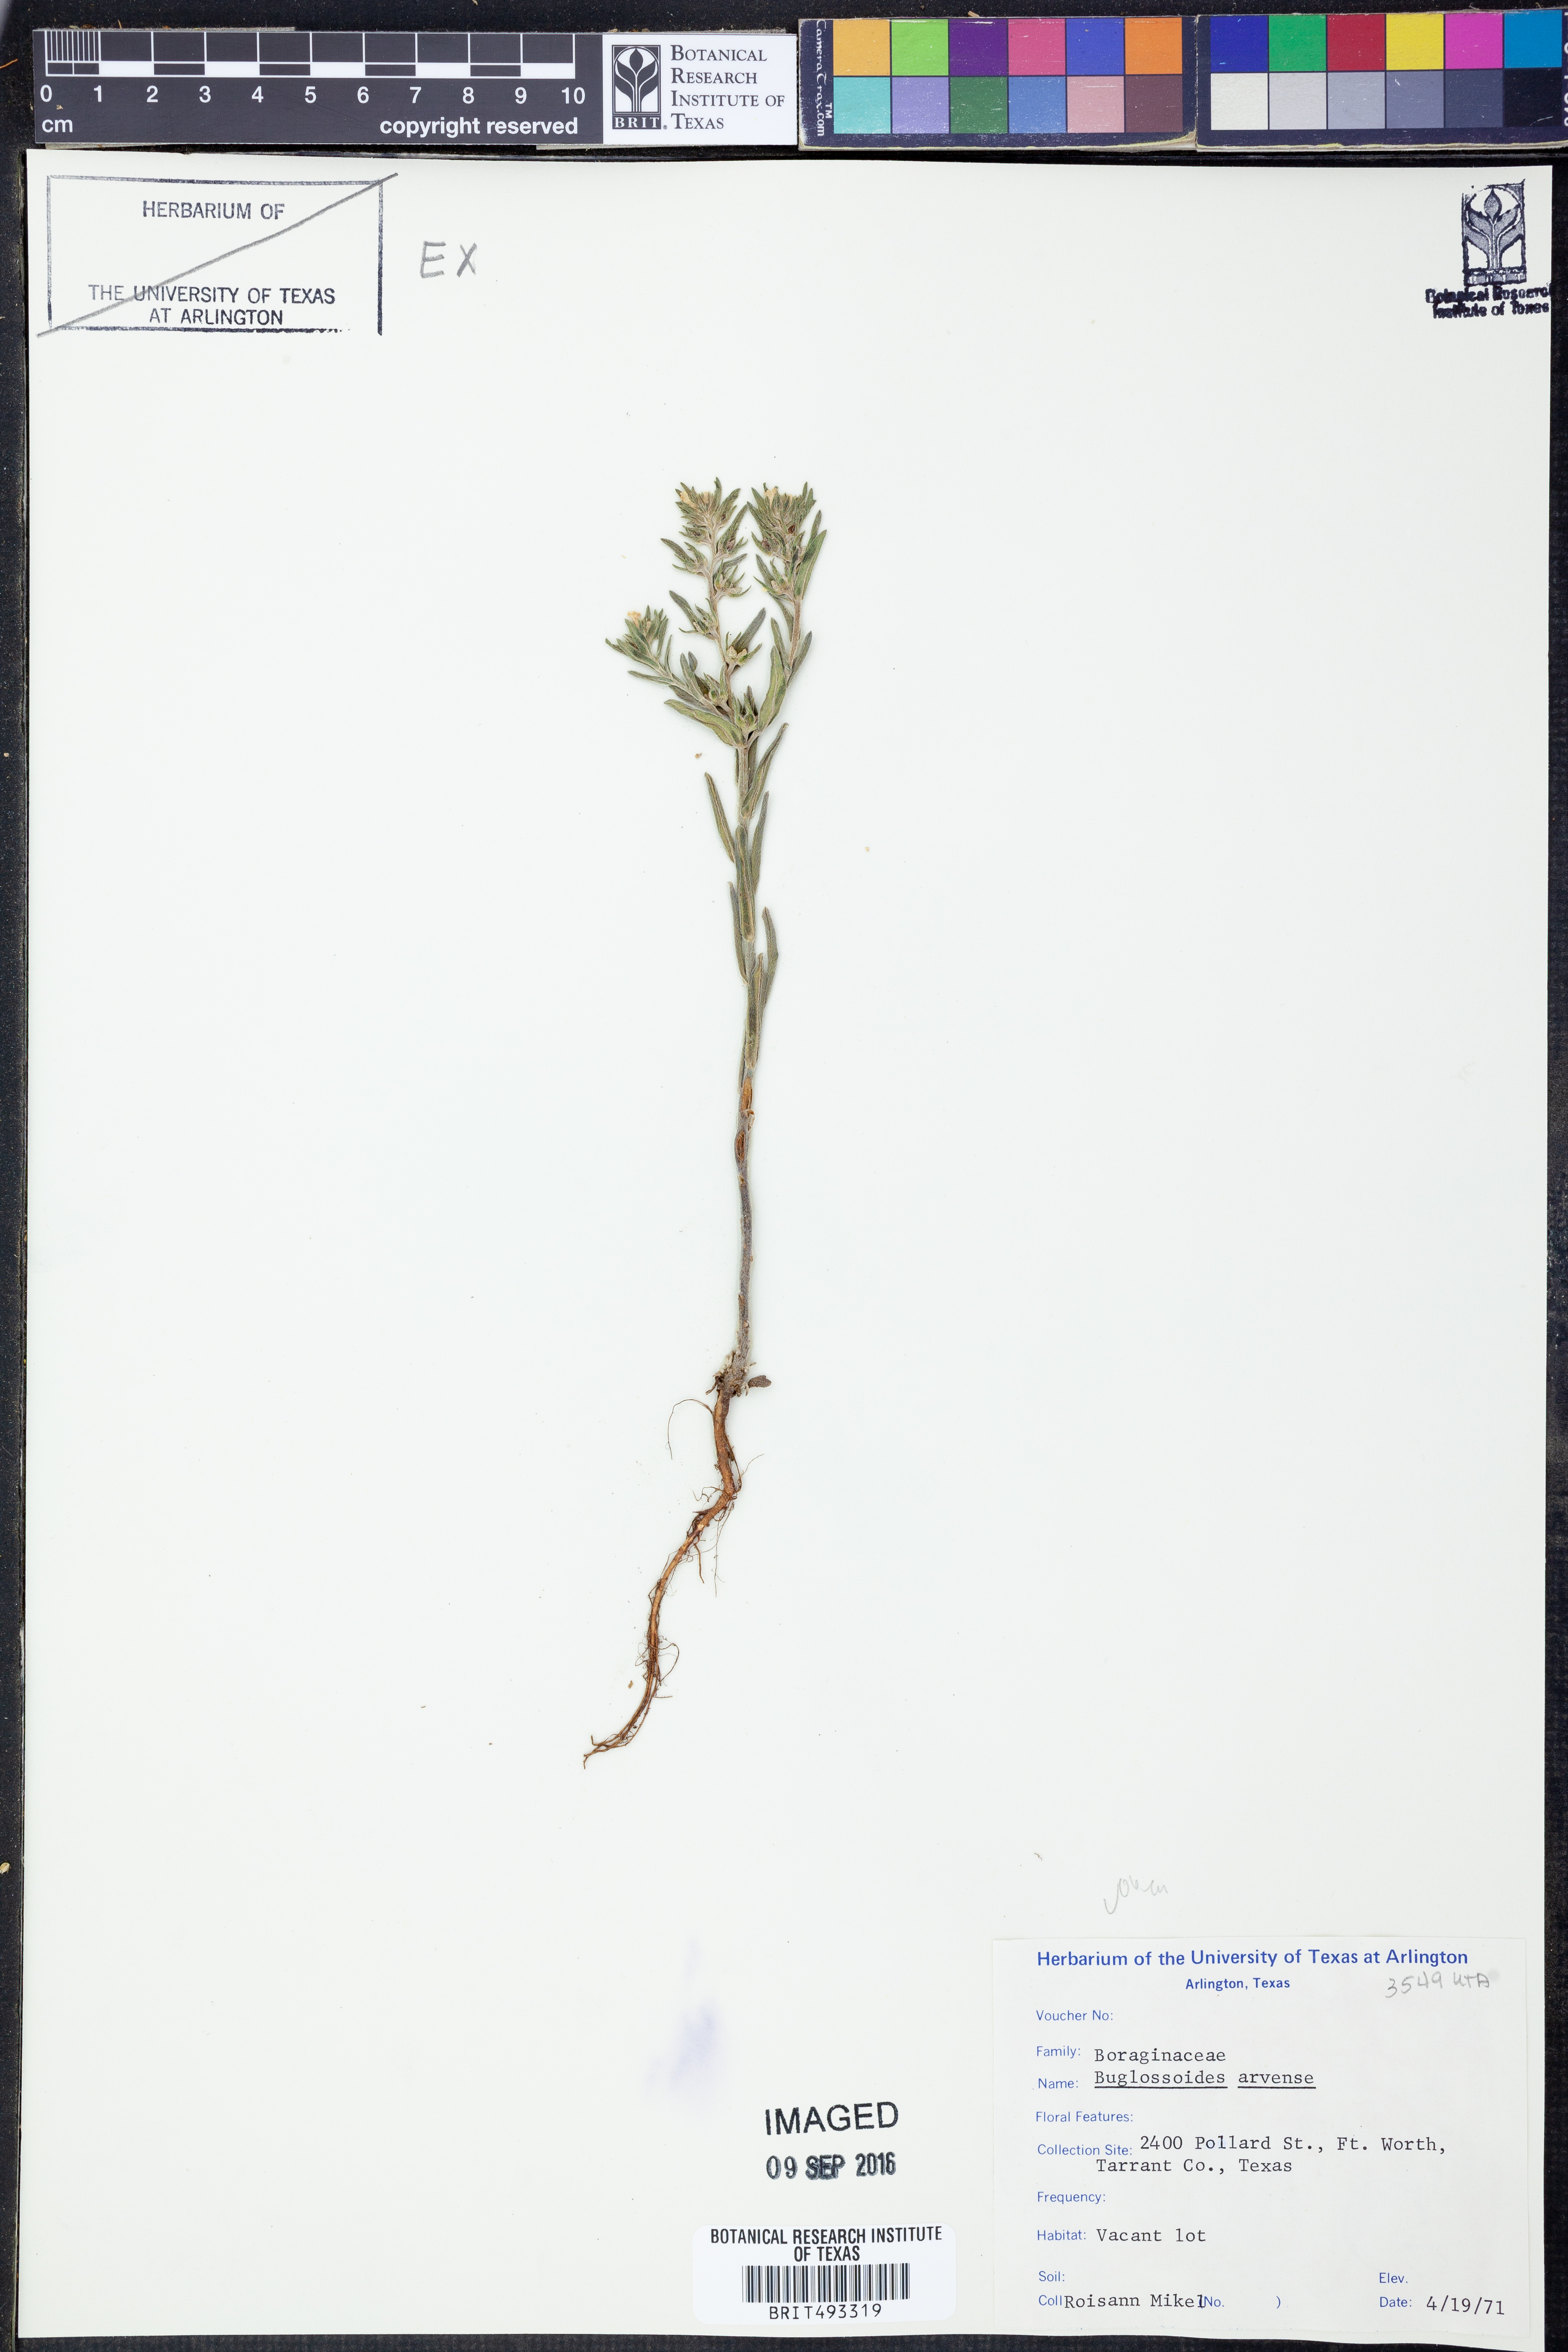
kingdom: Plantae
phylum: Tracheophyta
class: Magnoliopsida
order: Boraginales
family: Boraginaceae
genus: Buglossoides
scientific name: Buglossoides arvensis
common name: Corn gromwell
